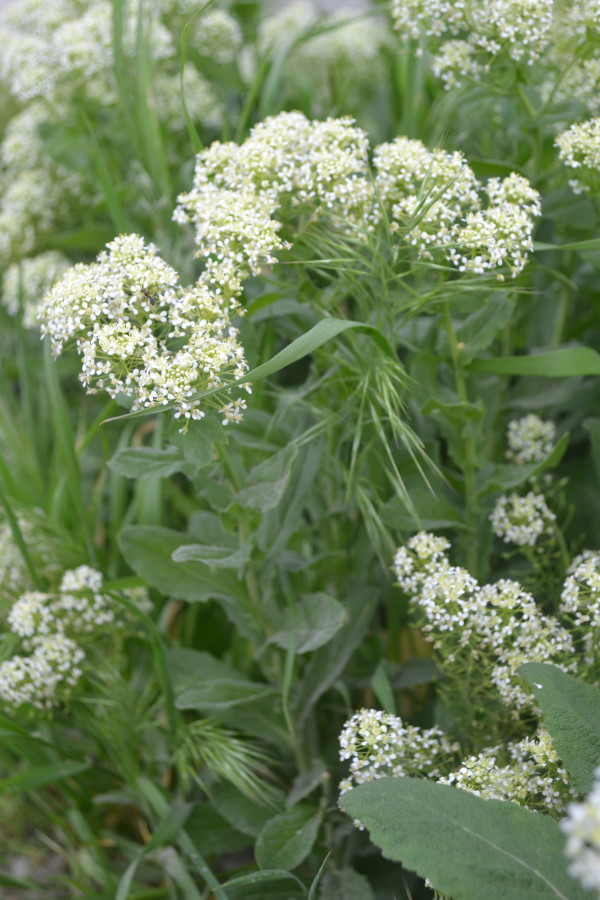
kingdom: Plantae
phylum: Tracheophyta
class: Magnoliopsida
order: Brassicales
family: Brassicaceae
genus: Lepidium
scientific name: Lepidium draba
